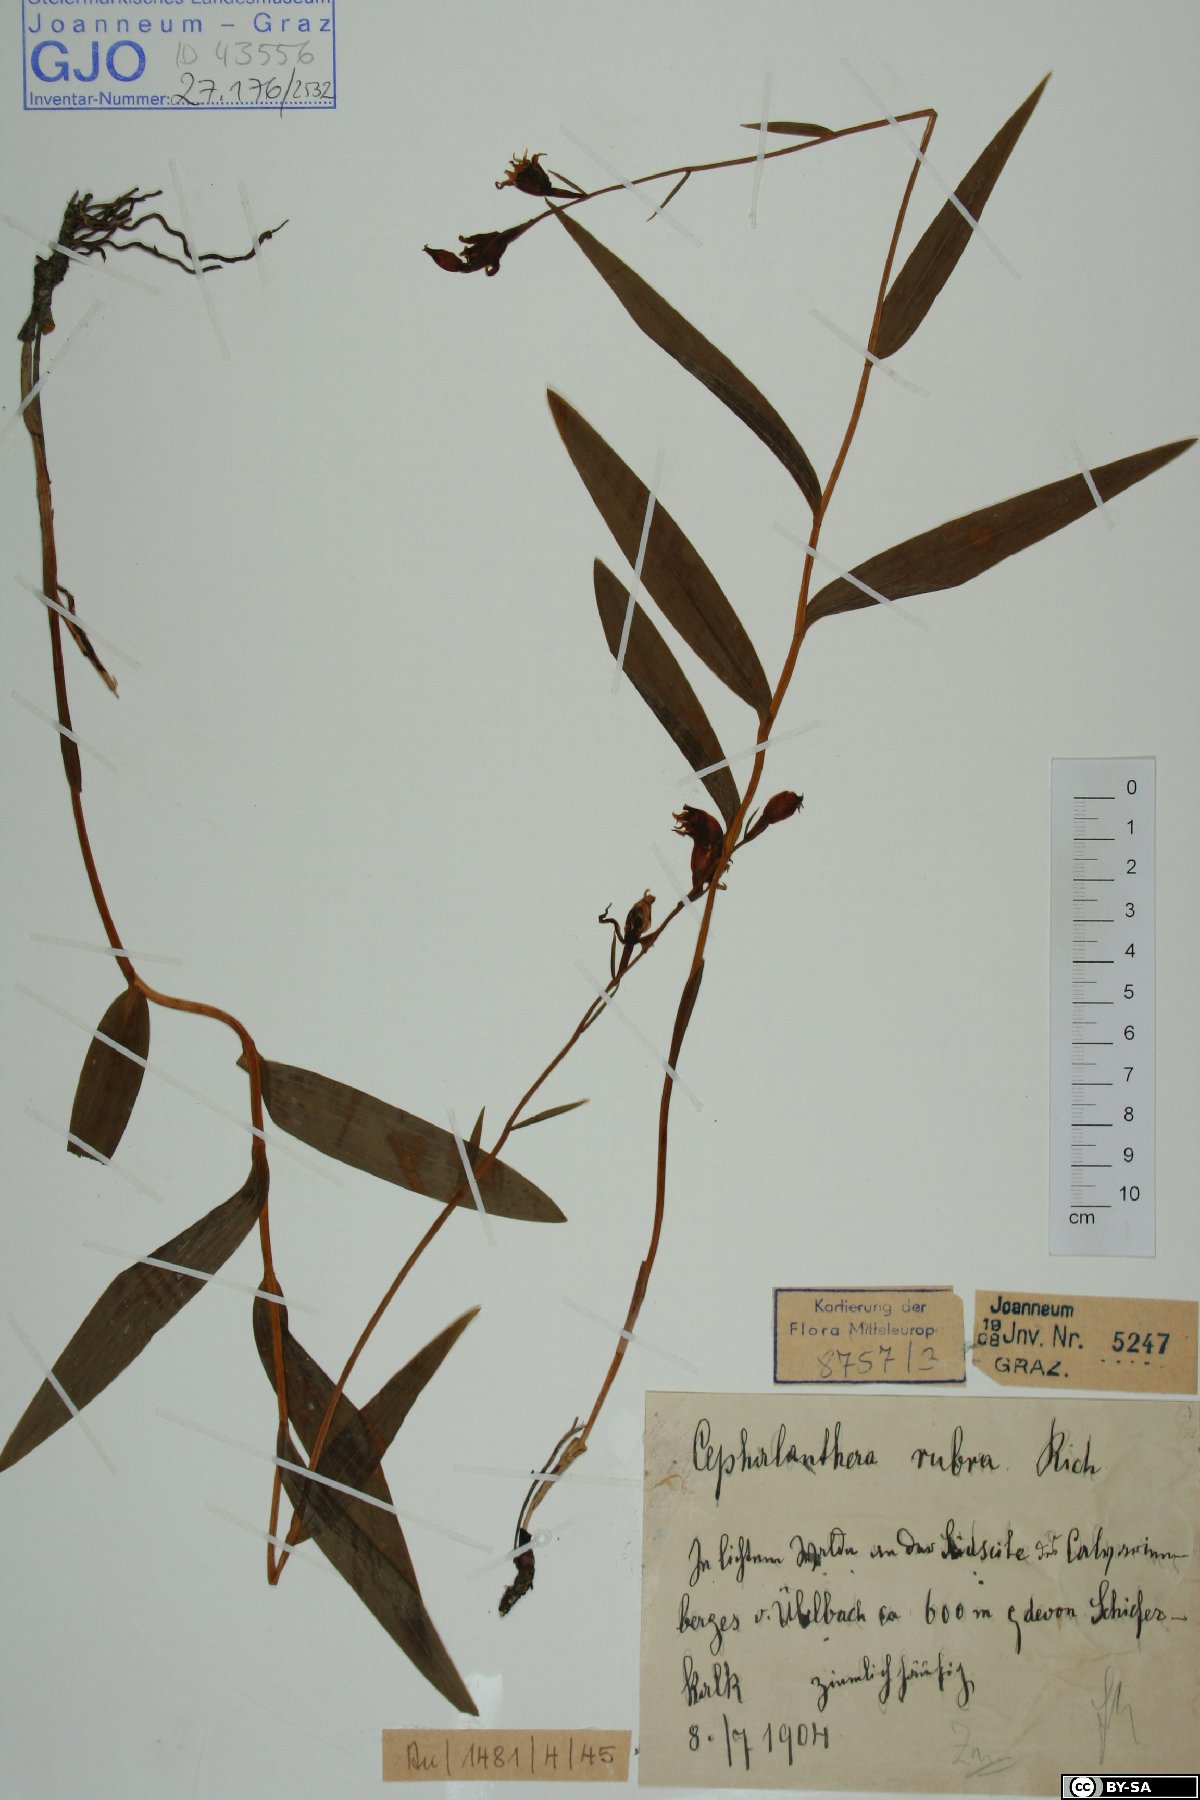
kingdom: Plantae
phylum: Tracheophyta
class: Liliopsida
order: Asparagales
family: Orchidaceae
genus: Cephalanthera
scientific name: Cephalanthera rubra
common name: Red helleborine
